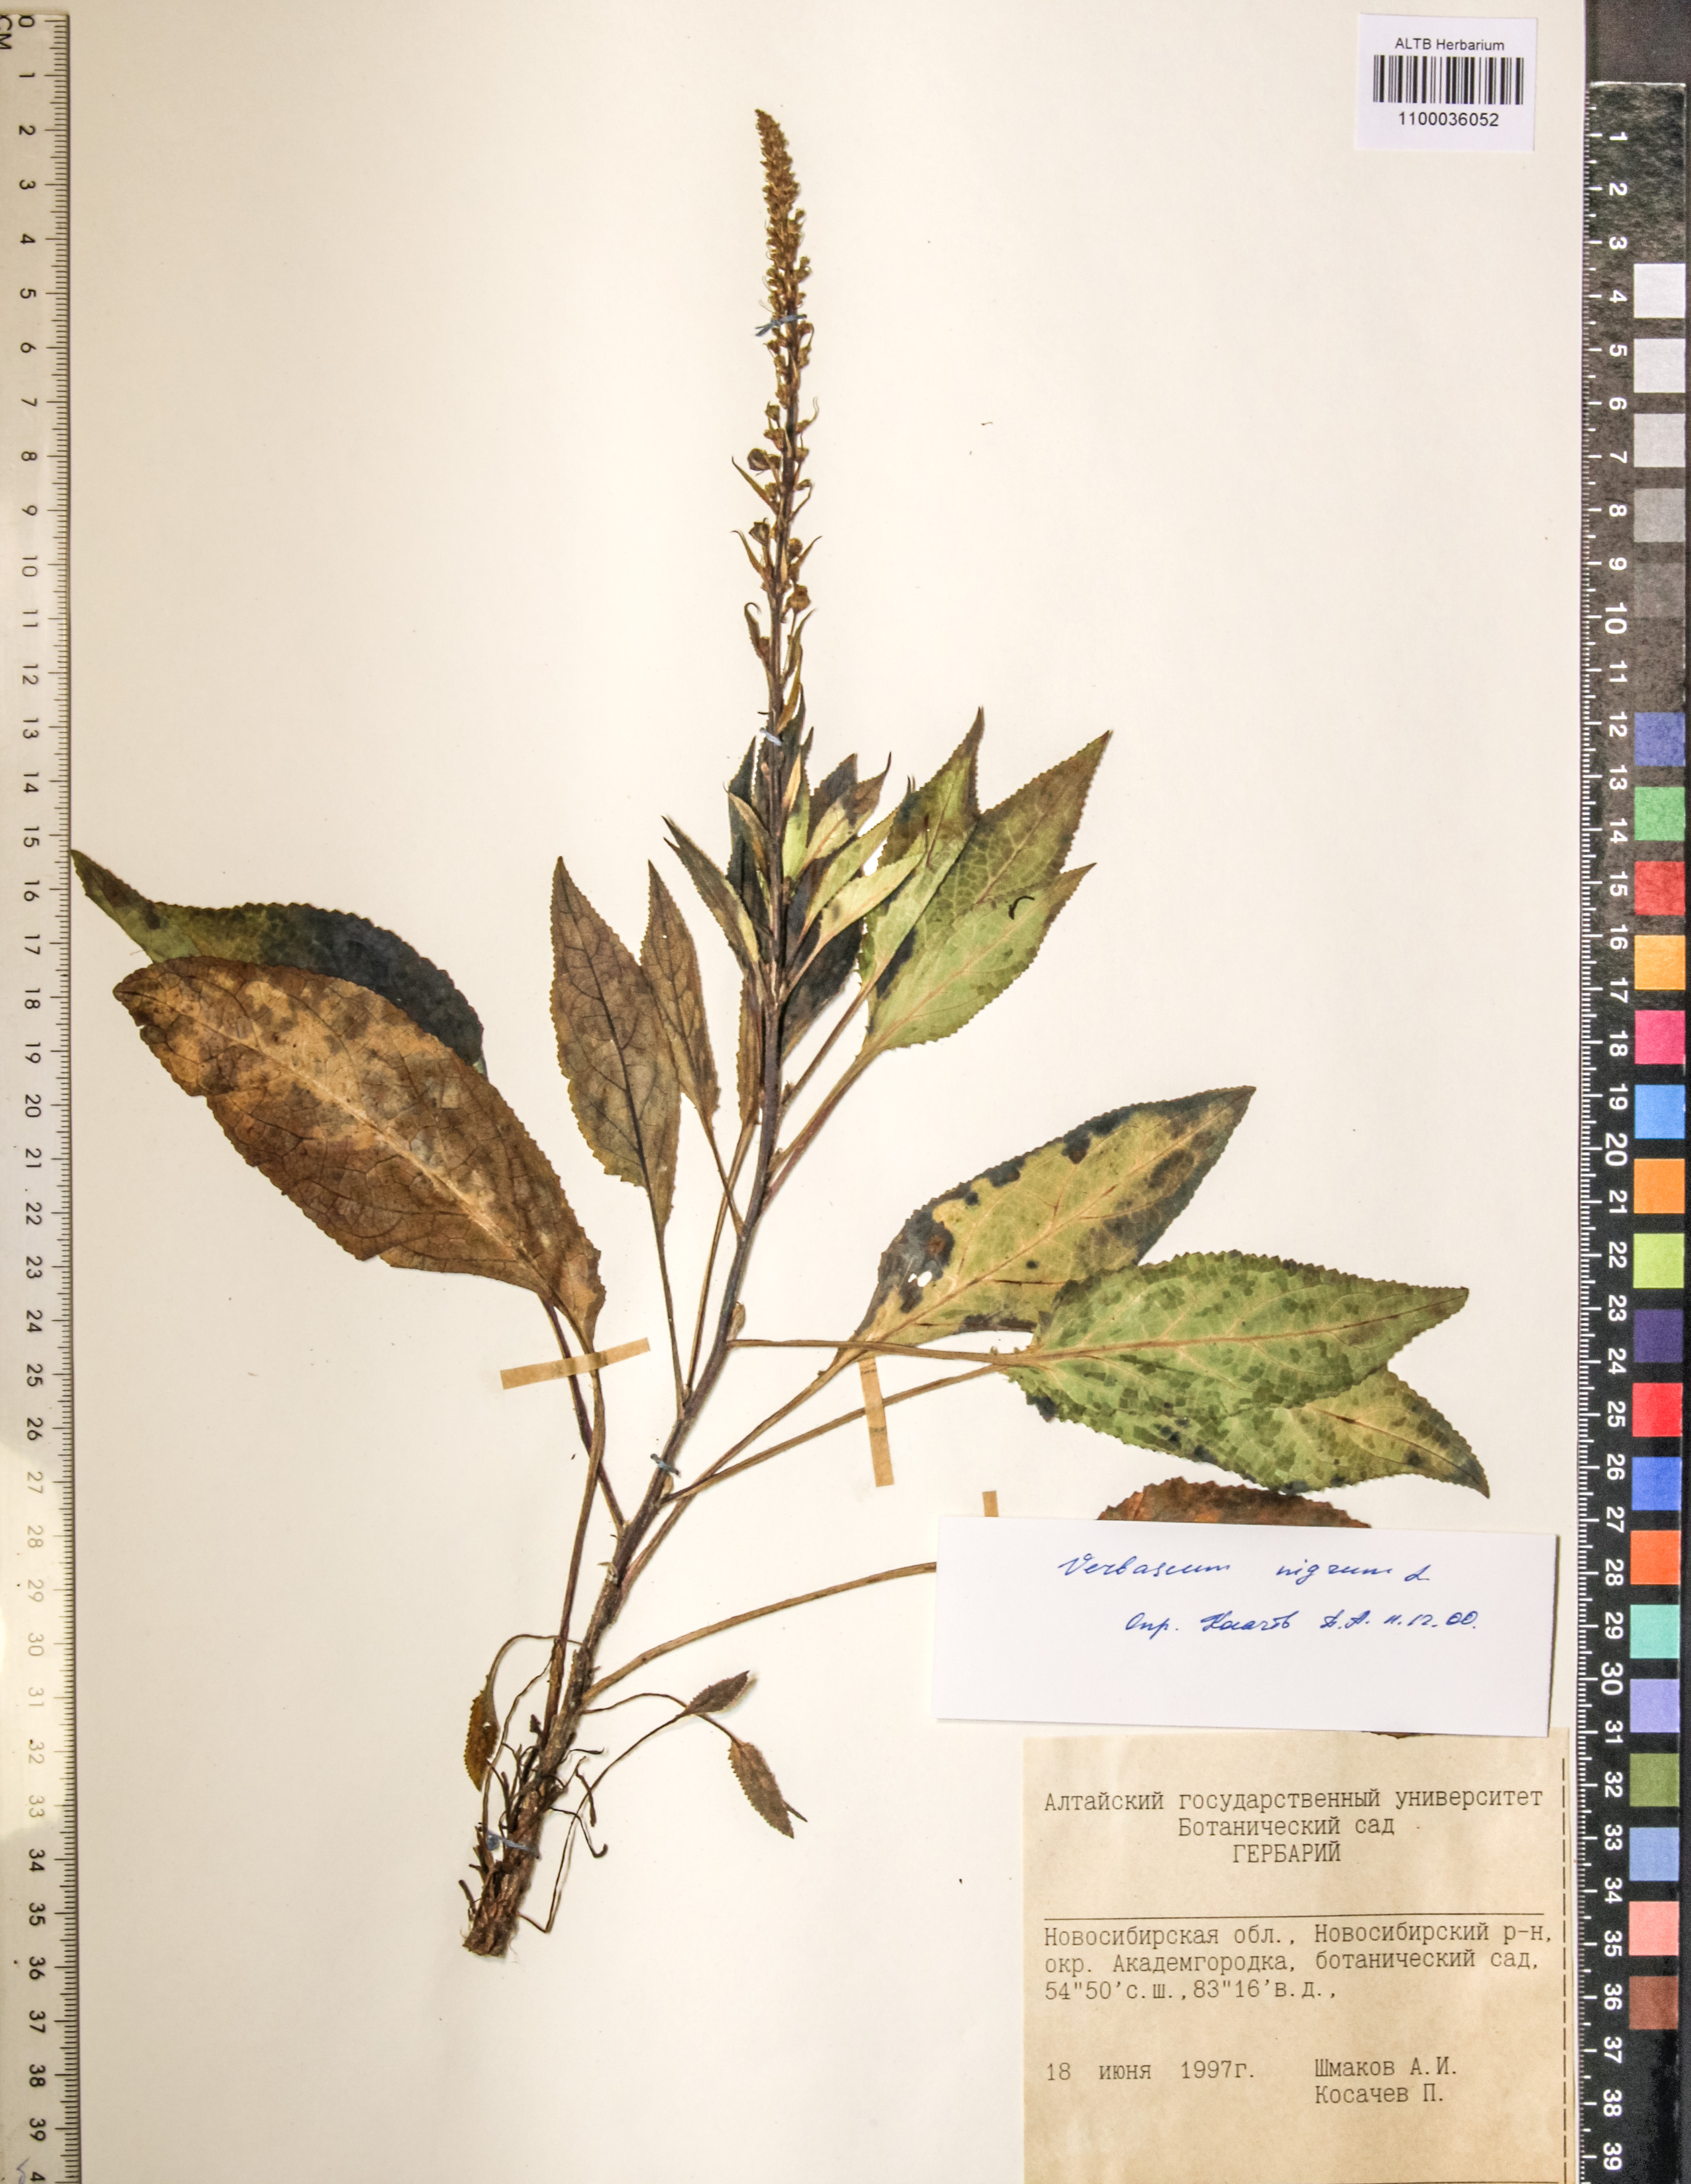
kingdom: Plantae
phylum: Tracheophyta
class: Magnoliopsida
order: Lamiales
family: Scrophulariaceae
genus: Verbascum
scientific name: Verbascum nigrum
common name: Dark mullein
